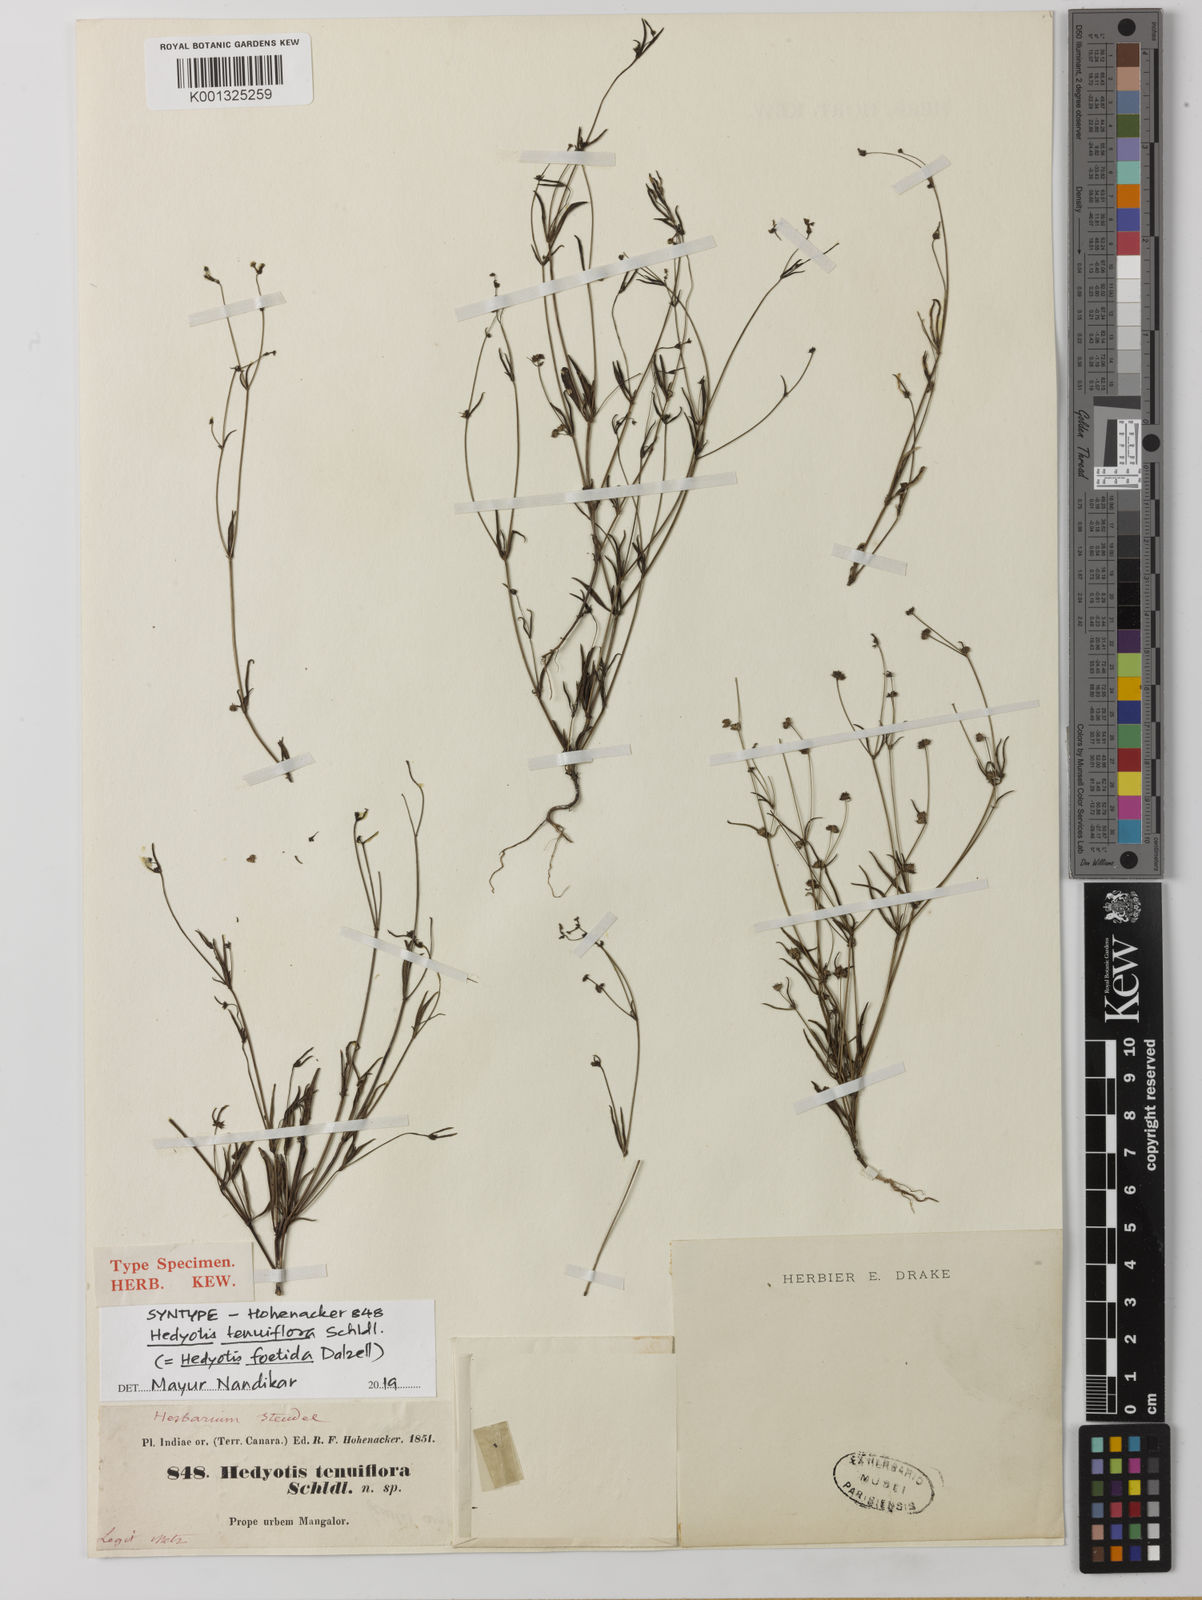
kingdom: Plantae
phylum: Tracheophyta
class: Magnoliopsida
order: Gentianales
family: Rubiaceae
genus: Neanotis
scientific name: Neanotis subtilis
